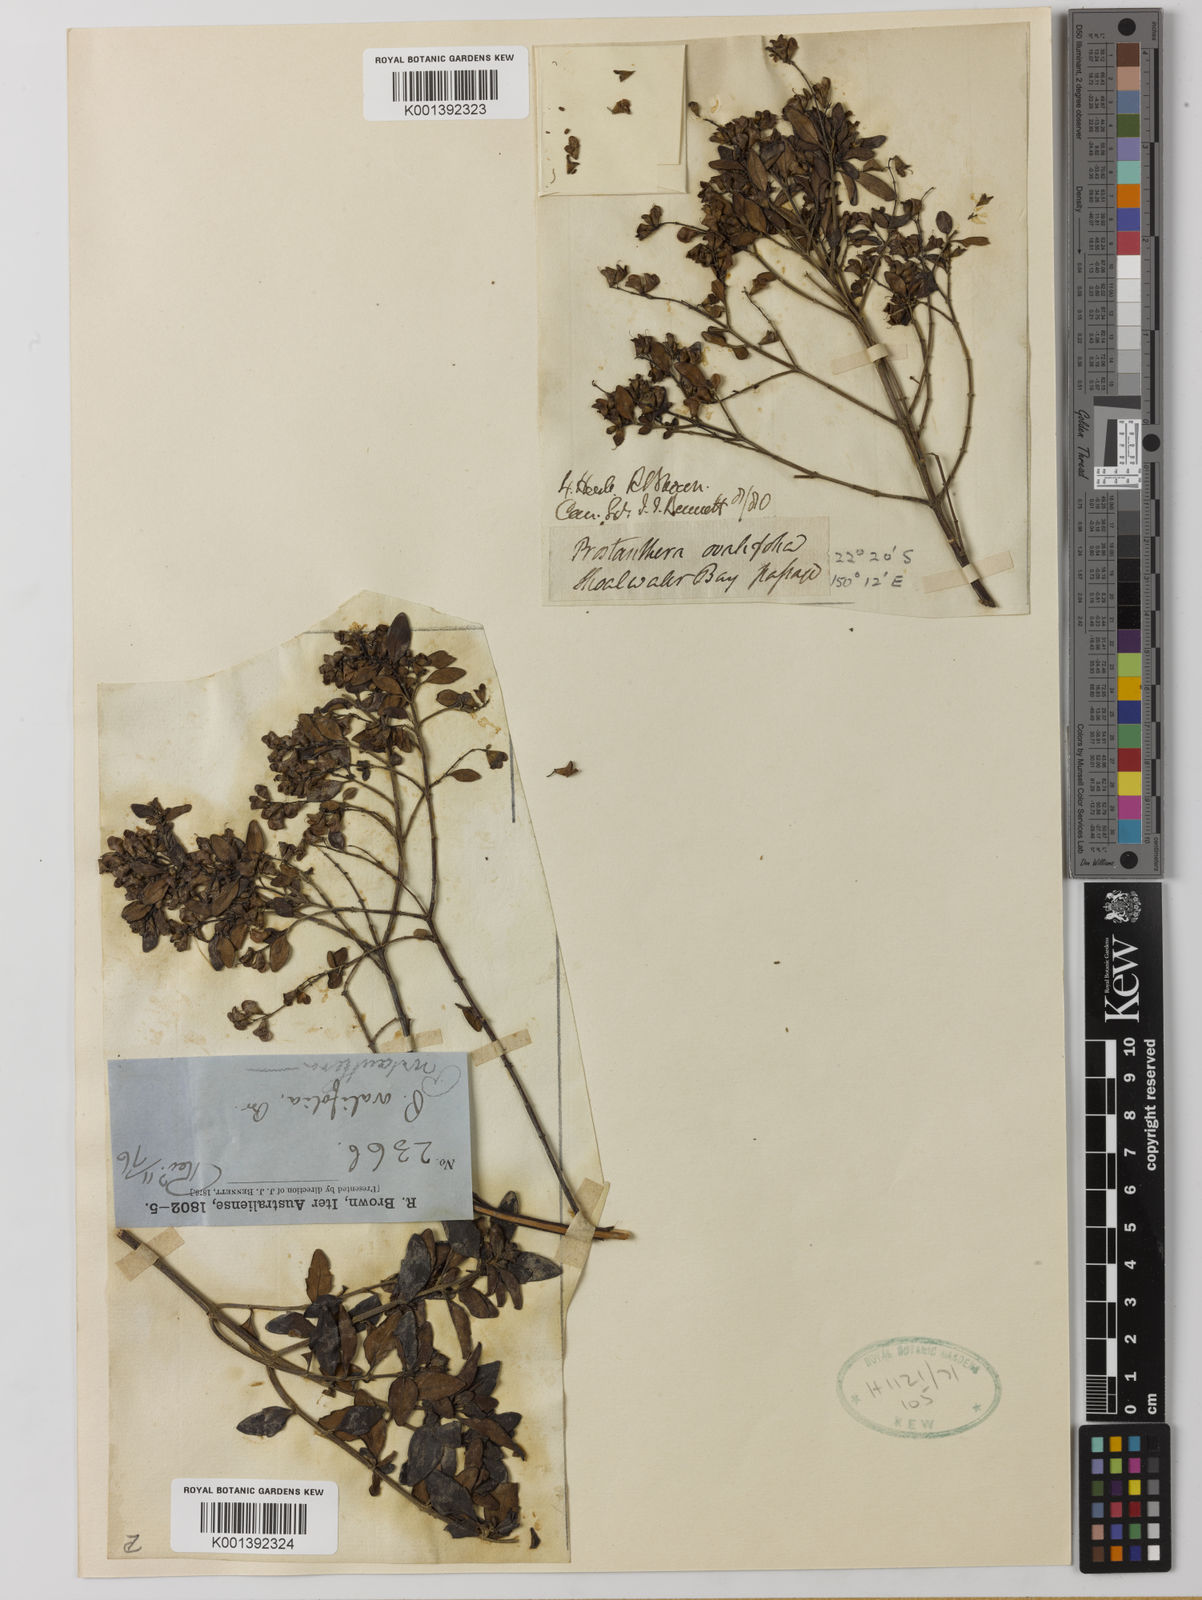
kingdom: Plantae
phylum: Tracheophyta
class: Magnoliopsida
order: Lamiales
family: Lamiaceae
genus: Prostanthera
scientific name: Prostanthera
